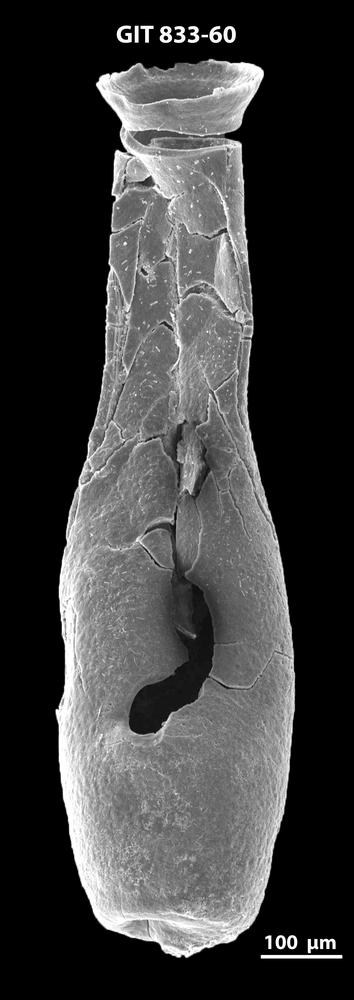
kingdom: Animalia
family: Lagenochitinidae
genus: Lagenochitina
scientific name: Lagenochitina megaesthonica
